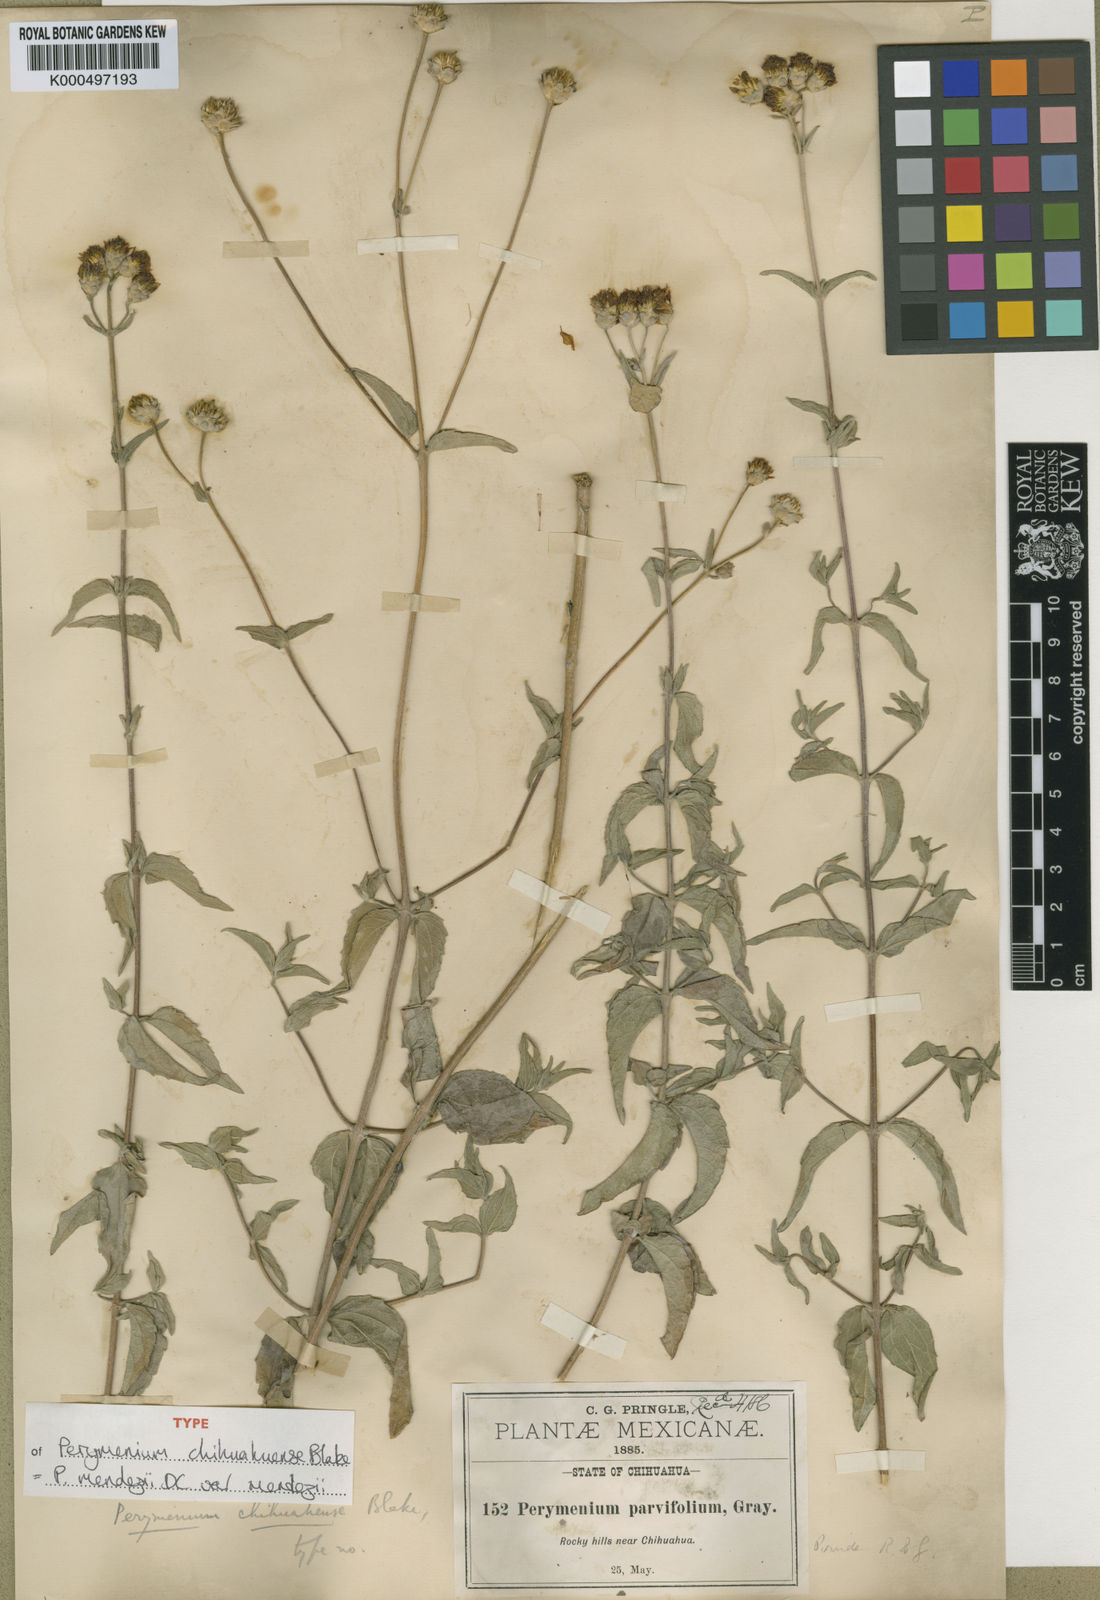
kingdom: Plantae
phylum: Tracheophyta
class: Magnoliopsida
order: Asterales
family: Asteraceae
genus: Perymenium
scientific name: Perymenium mendezii
